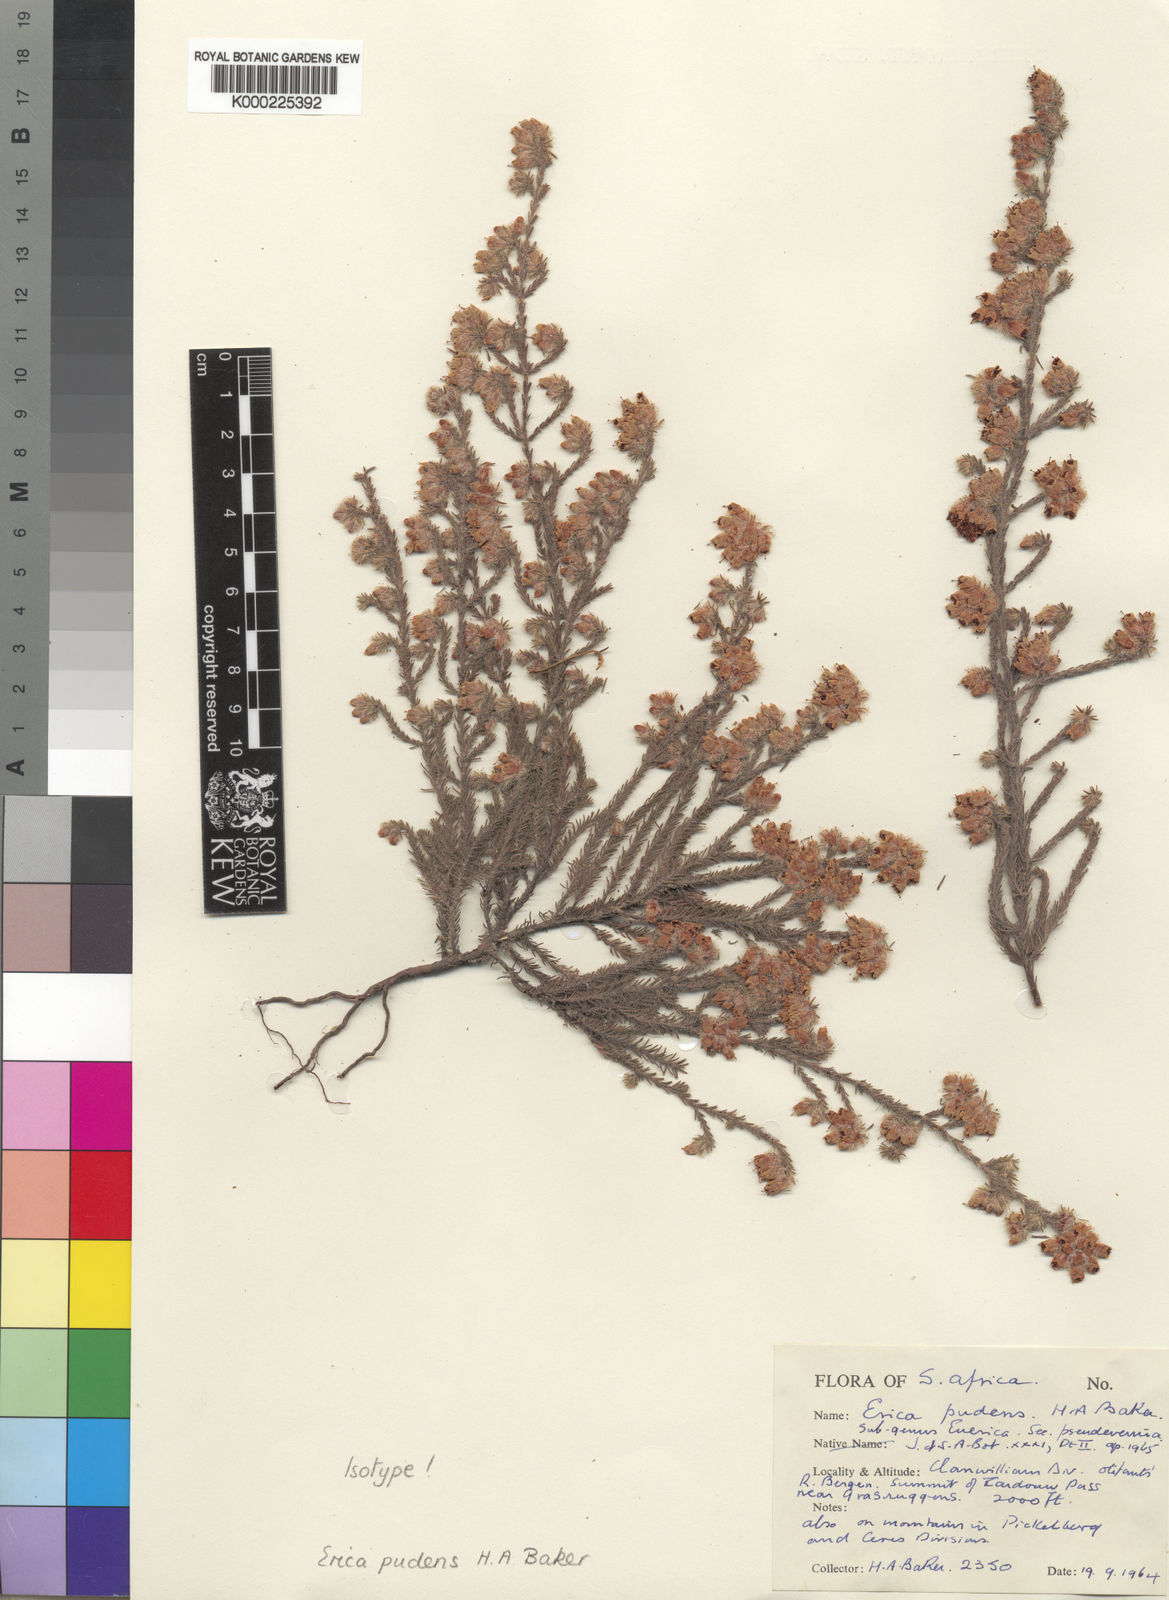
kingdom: Plantae
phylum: Tracheophyta
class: Magnoliopsida
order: Ericales
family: Ericaceae
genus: Erica
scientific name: Erica
